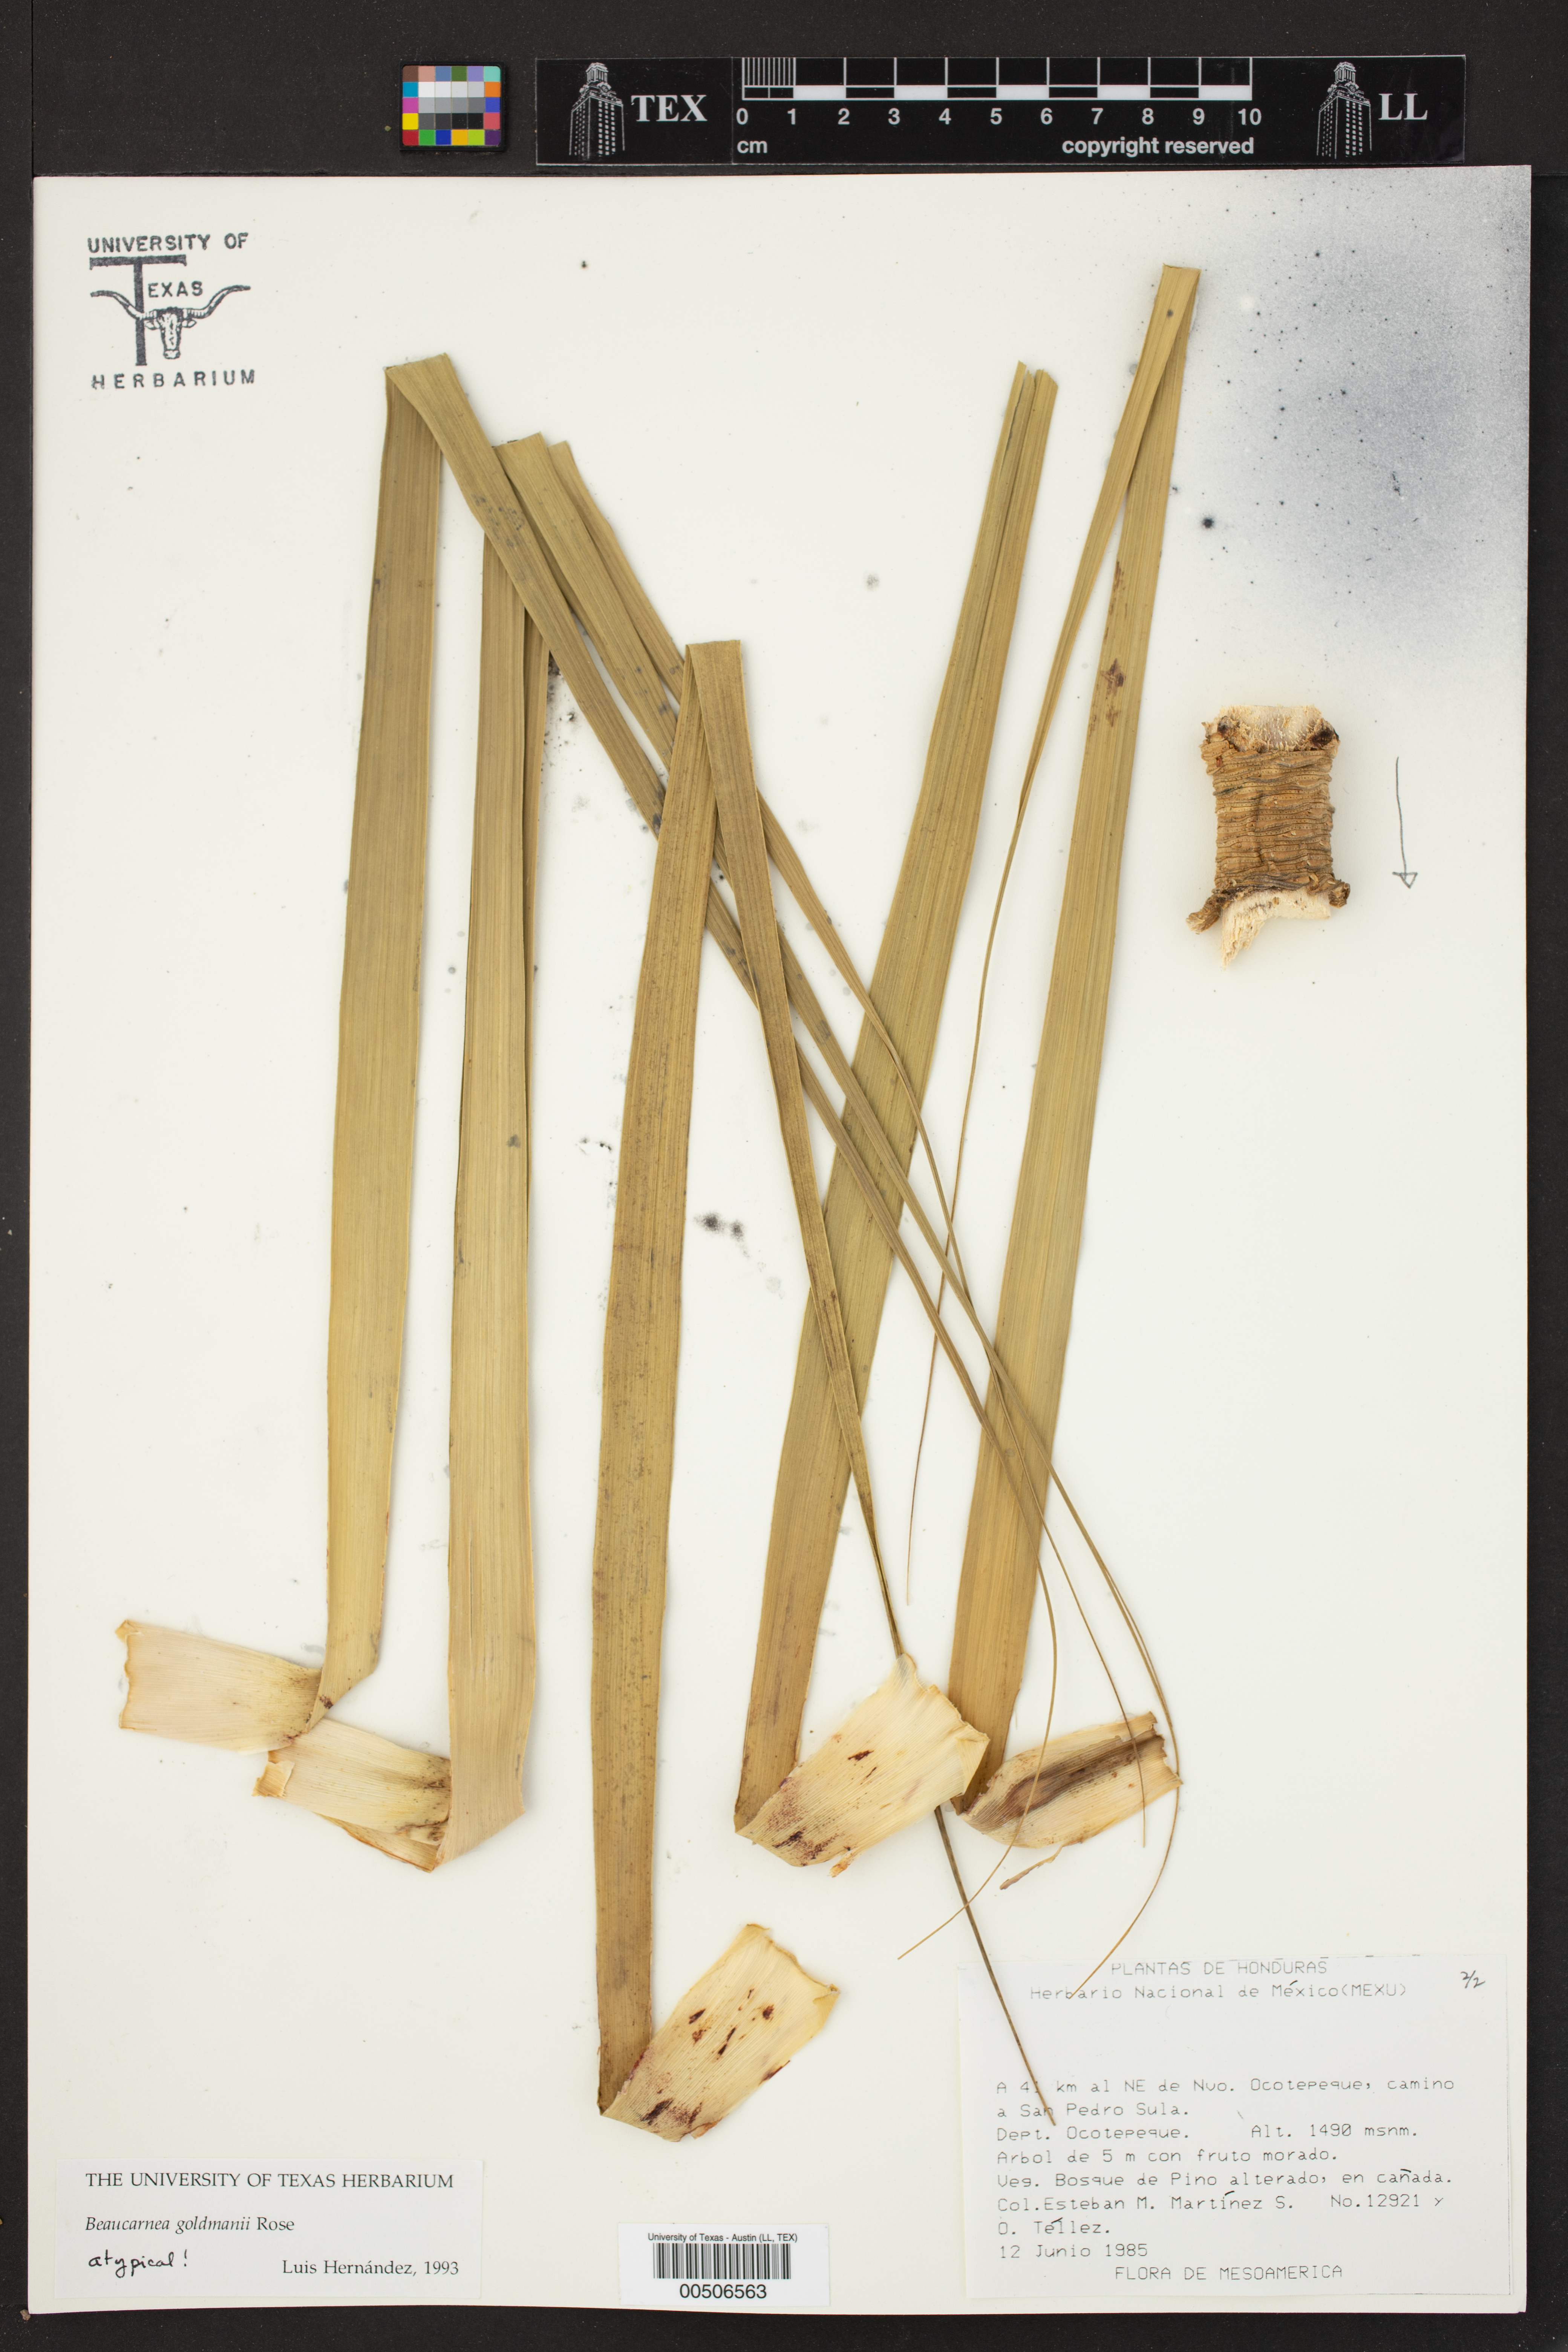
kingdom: Plantae
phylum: Tracheophyta
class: Liliopsida
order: Asparagales
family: Asparagaceae
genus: Beaucarnea
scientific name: Beaucarnea goldmanii
